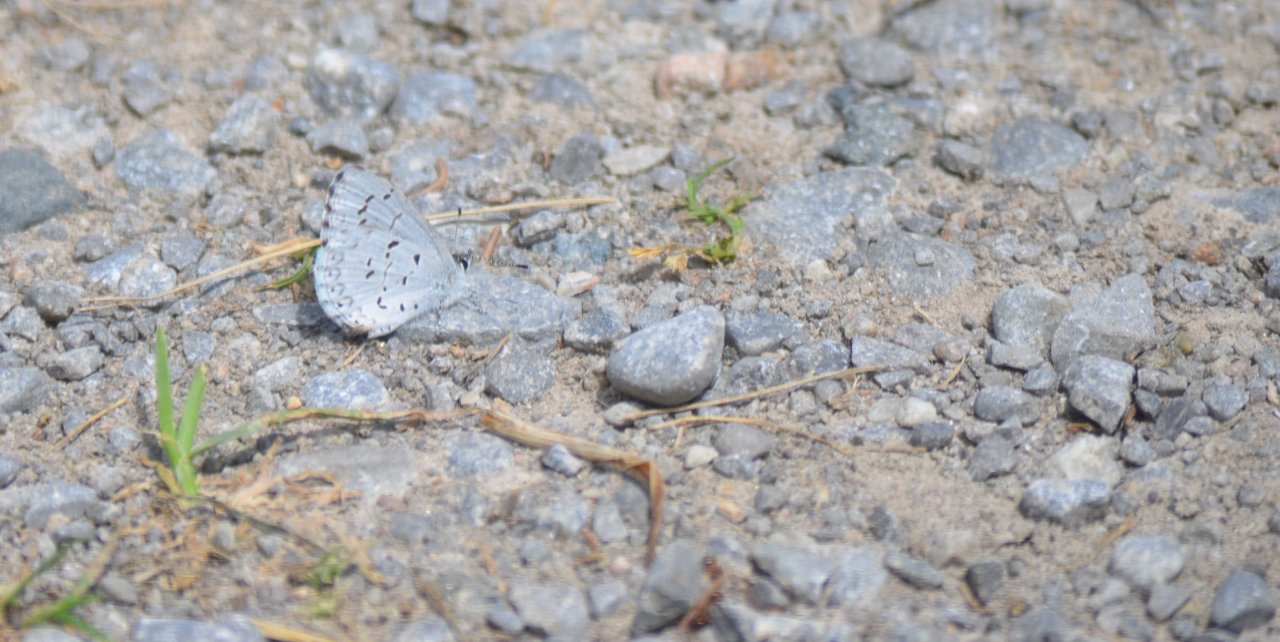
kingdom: Animalia
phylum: Arthropoda
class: Insecta
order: Lepidoptera
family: Lycaenidae
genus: Celastrina
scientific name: Celastrina lucia
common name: Northern Spring Azure
